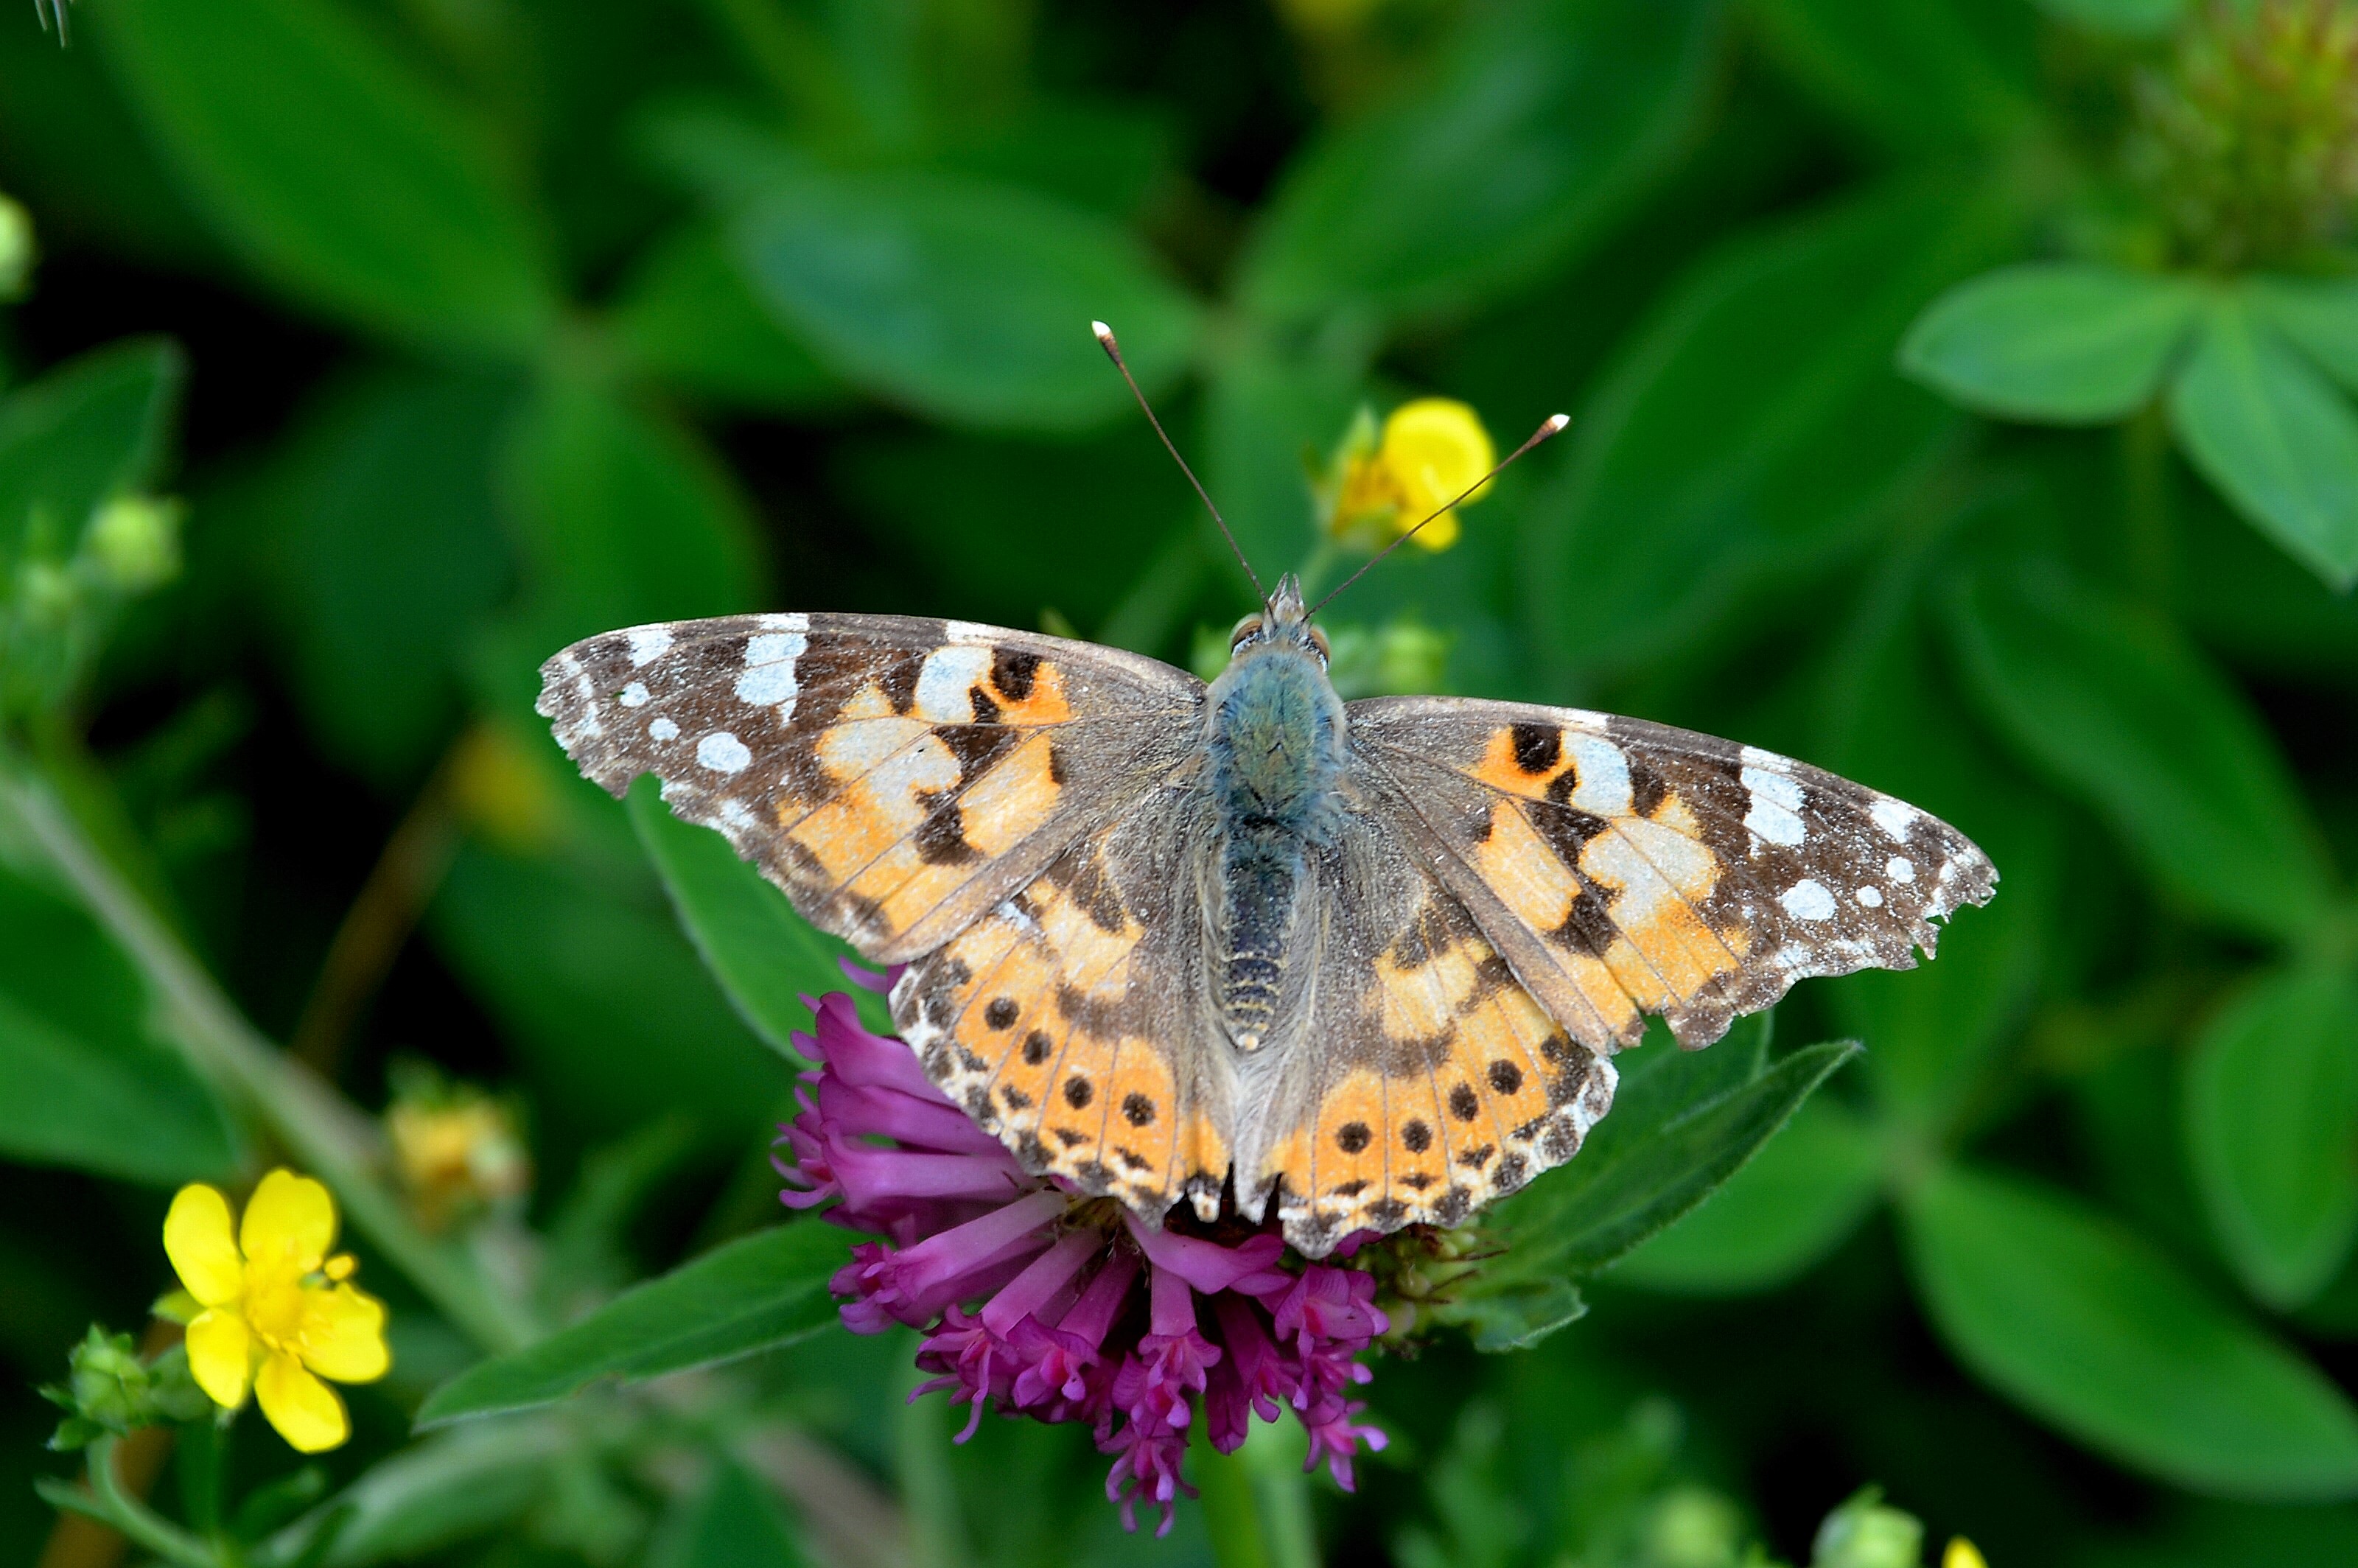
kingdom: Animalia
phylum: Arthropoda
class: Insecta
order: Lepidoptera
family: Nymphalidae
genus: Vanessa
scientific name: Vanessa cardui
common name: Painted lady
